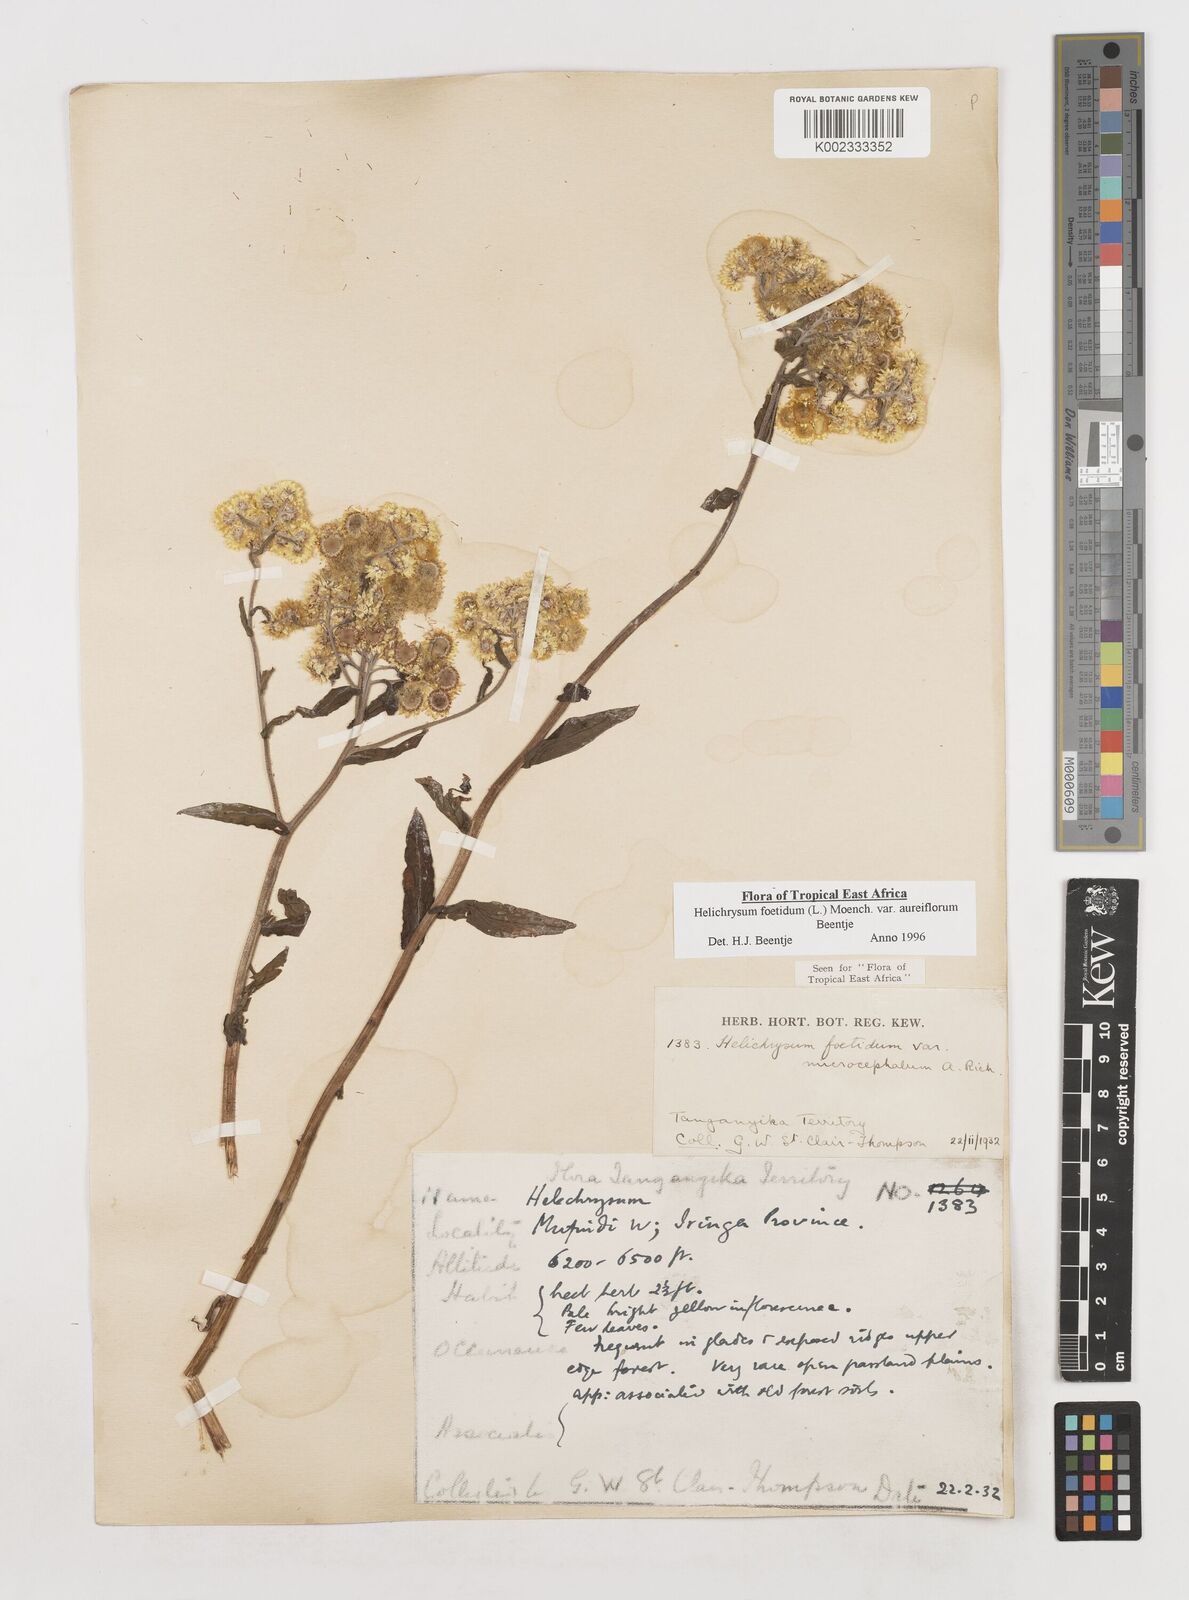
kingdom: Plantae
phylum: Tracheophyta
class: Magnoliopsida
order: Asterales
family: Asteraceae
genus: Helichrysum
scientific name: Helichrysum foetidum
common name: Stinking everlasting
